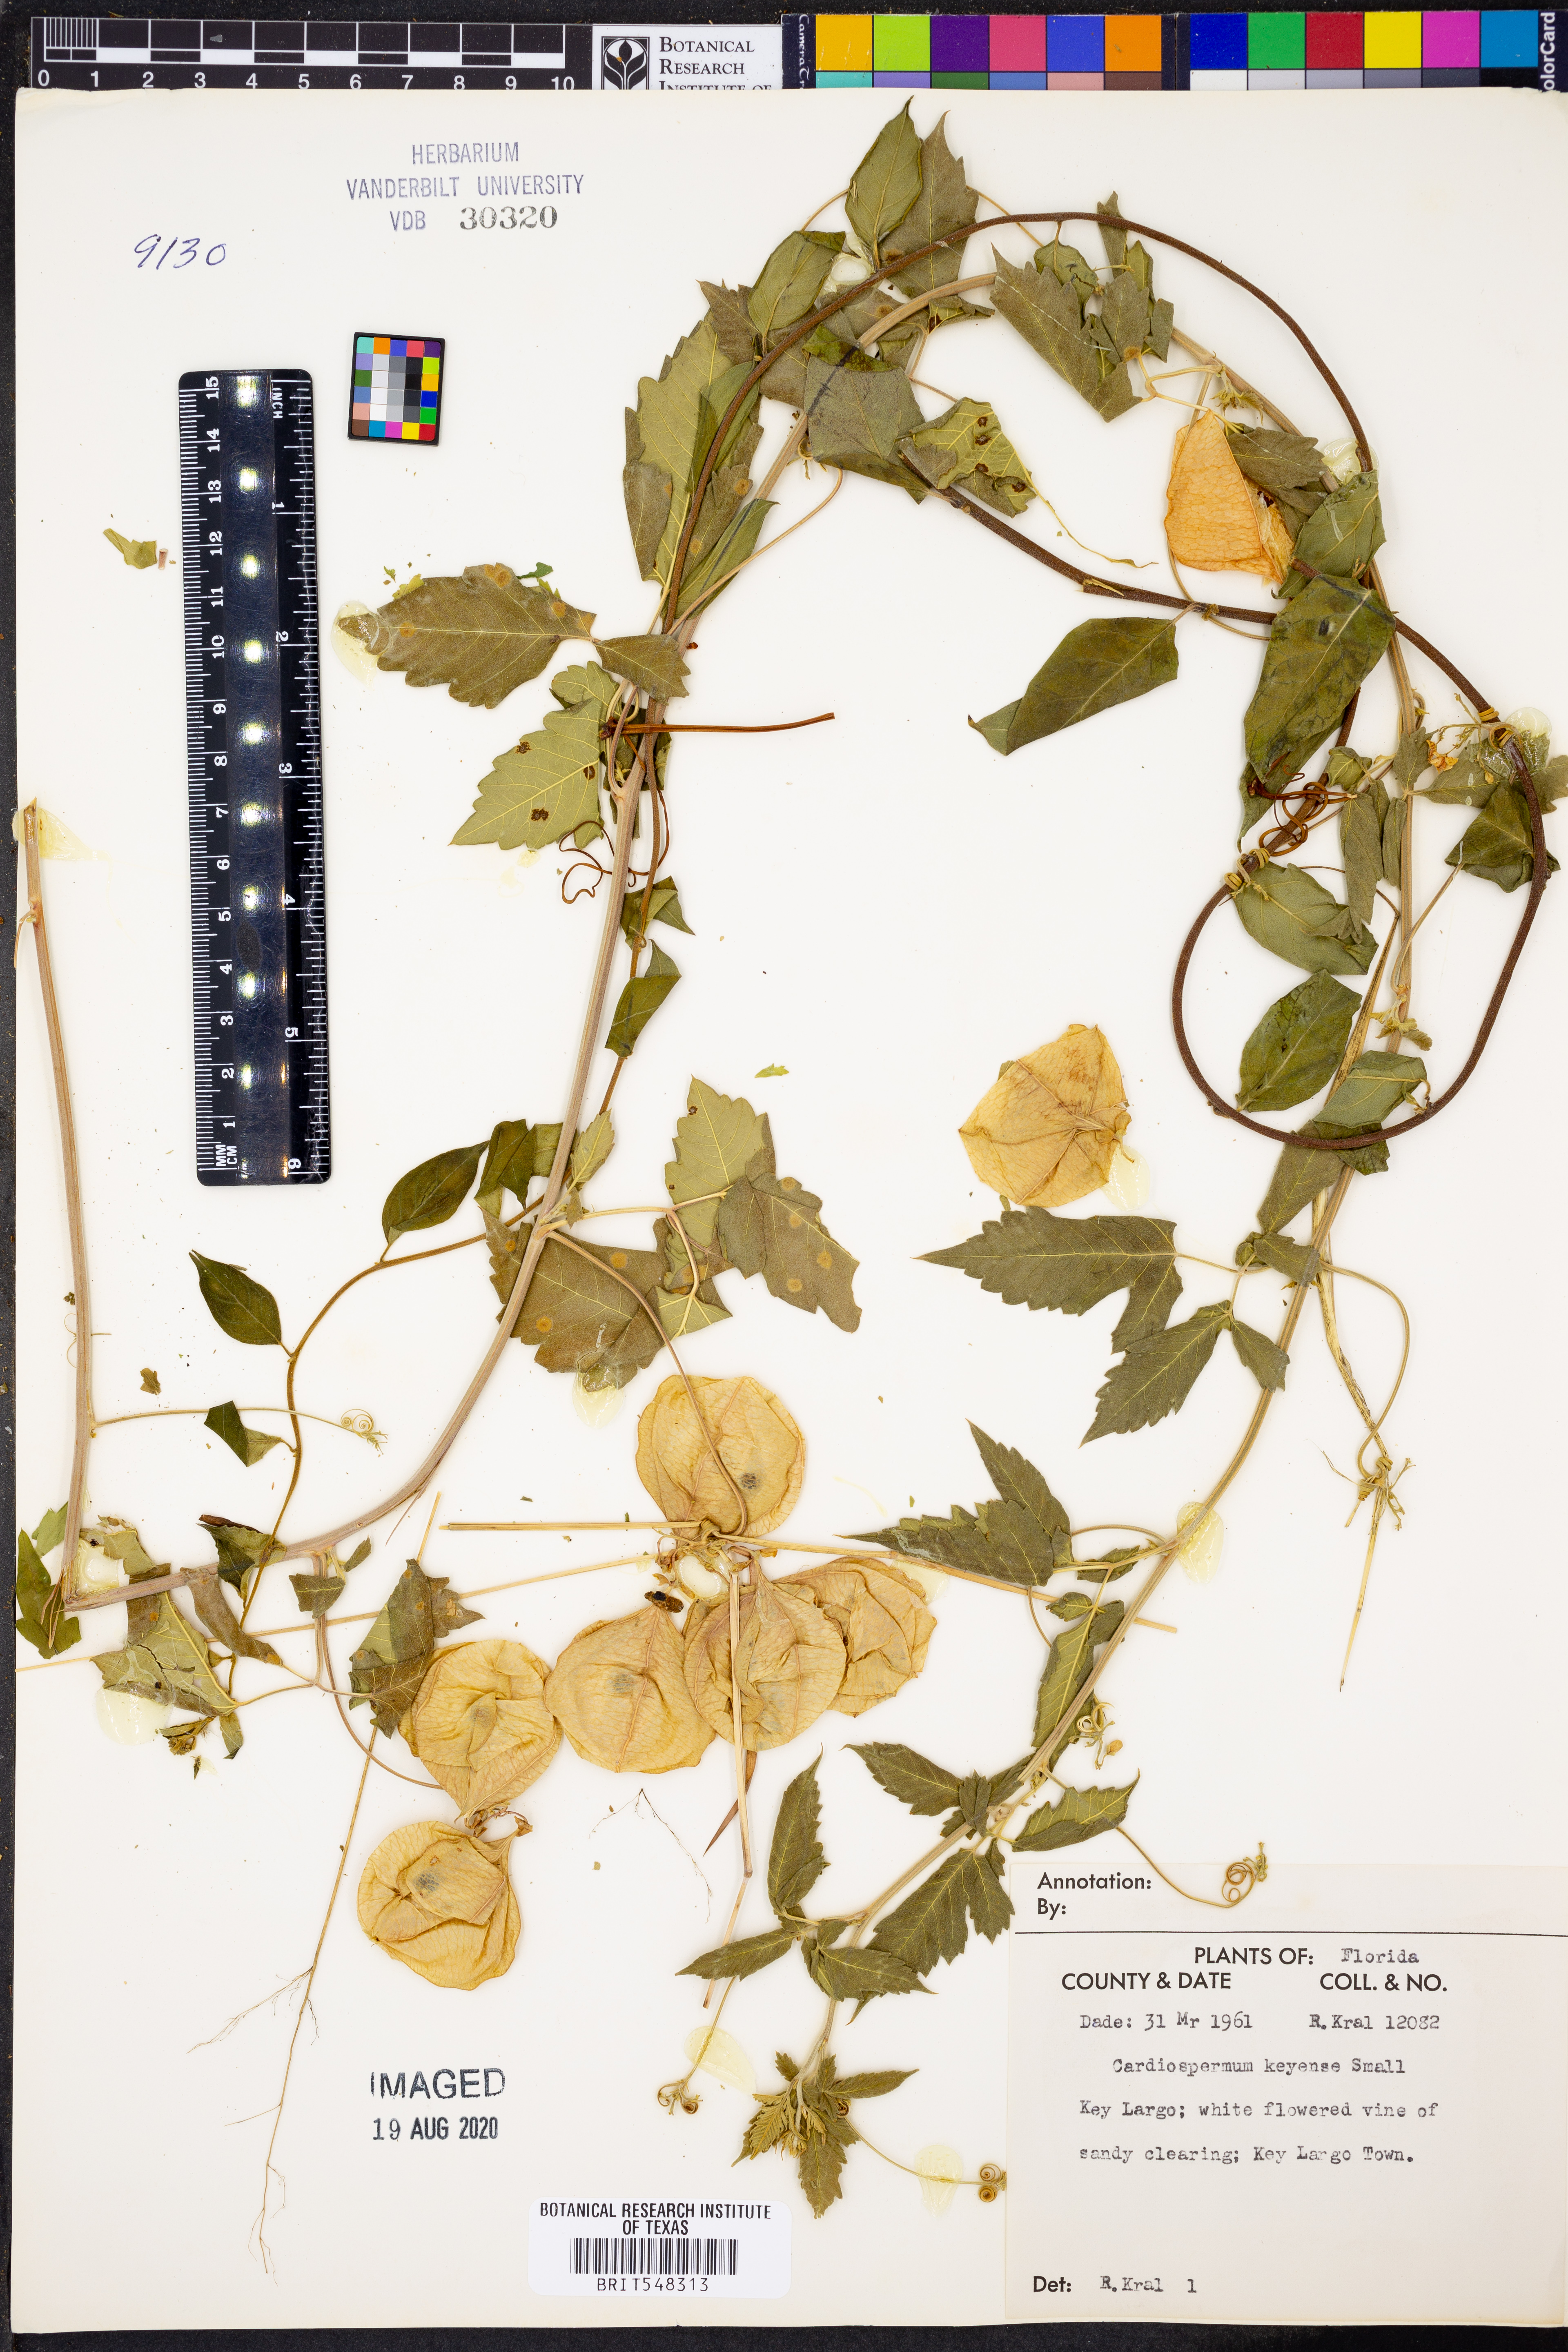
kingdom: Plantae
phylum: Tracheophyta
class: Magnoliopsida
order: Sapindales
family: Sapindaceae
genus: Cardiospermum
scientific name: Cardiospermum corindum
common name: Faux persil
